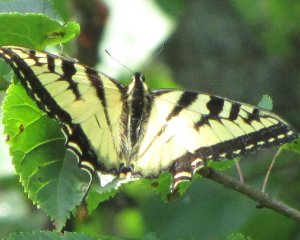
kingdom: Animalia
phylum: Arthropoda
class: Insecta
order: Lepidoptera
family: Papilionidae
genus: Pterourus
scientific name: Pterourus canadensis
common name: Canadian Tiger Swallowtail
